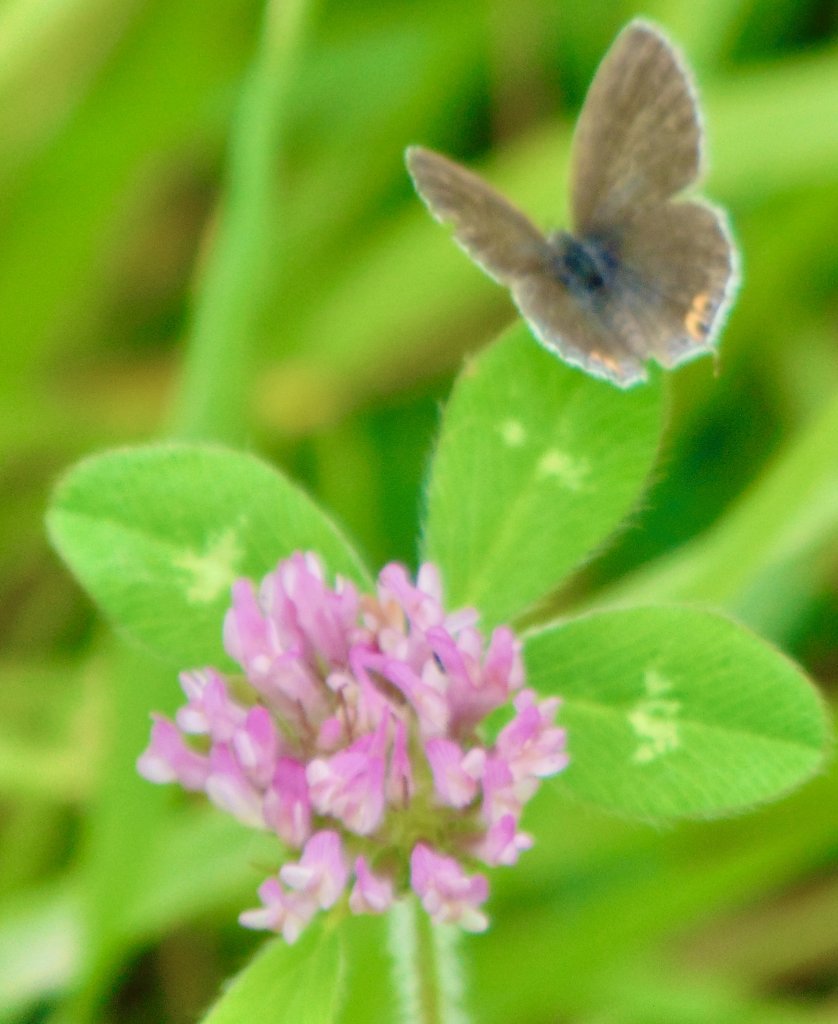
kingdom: Animalia
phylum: Arthropoda
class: Insecta
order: Lepidoptera
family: Lycaenidae
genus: Elkalyce
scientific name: Elkalyce comyntas
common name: Eastern Tailed-Blue
